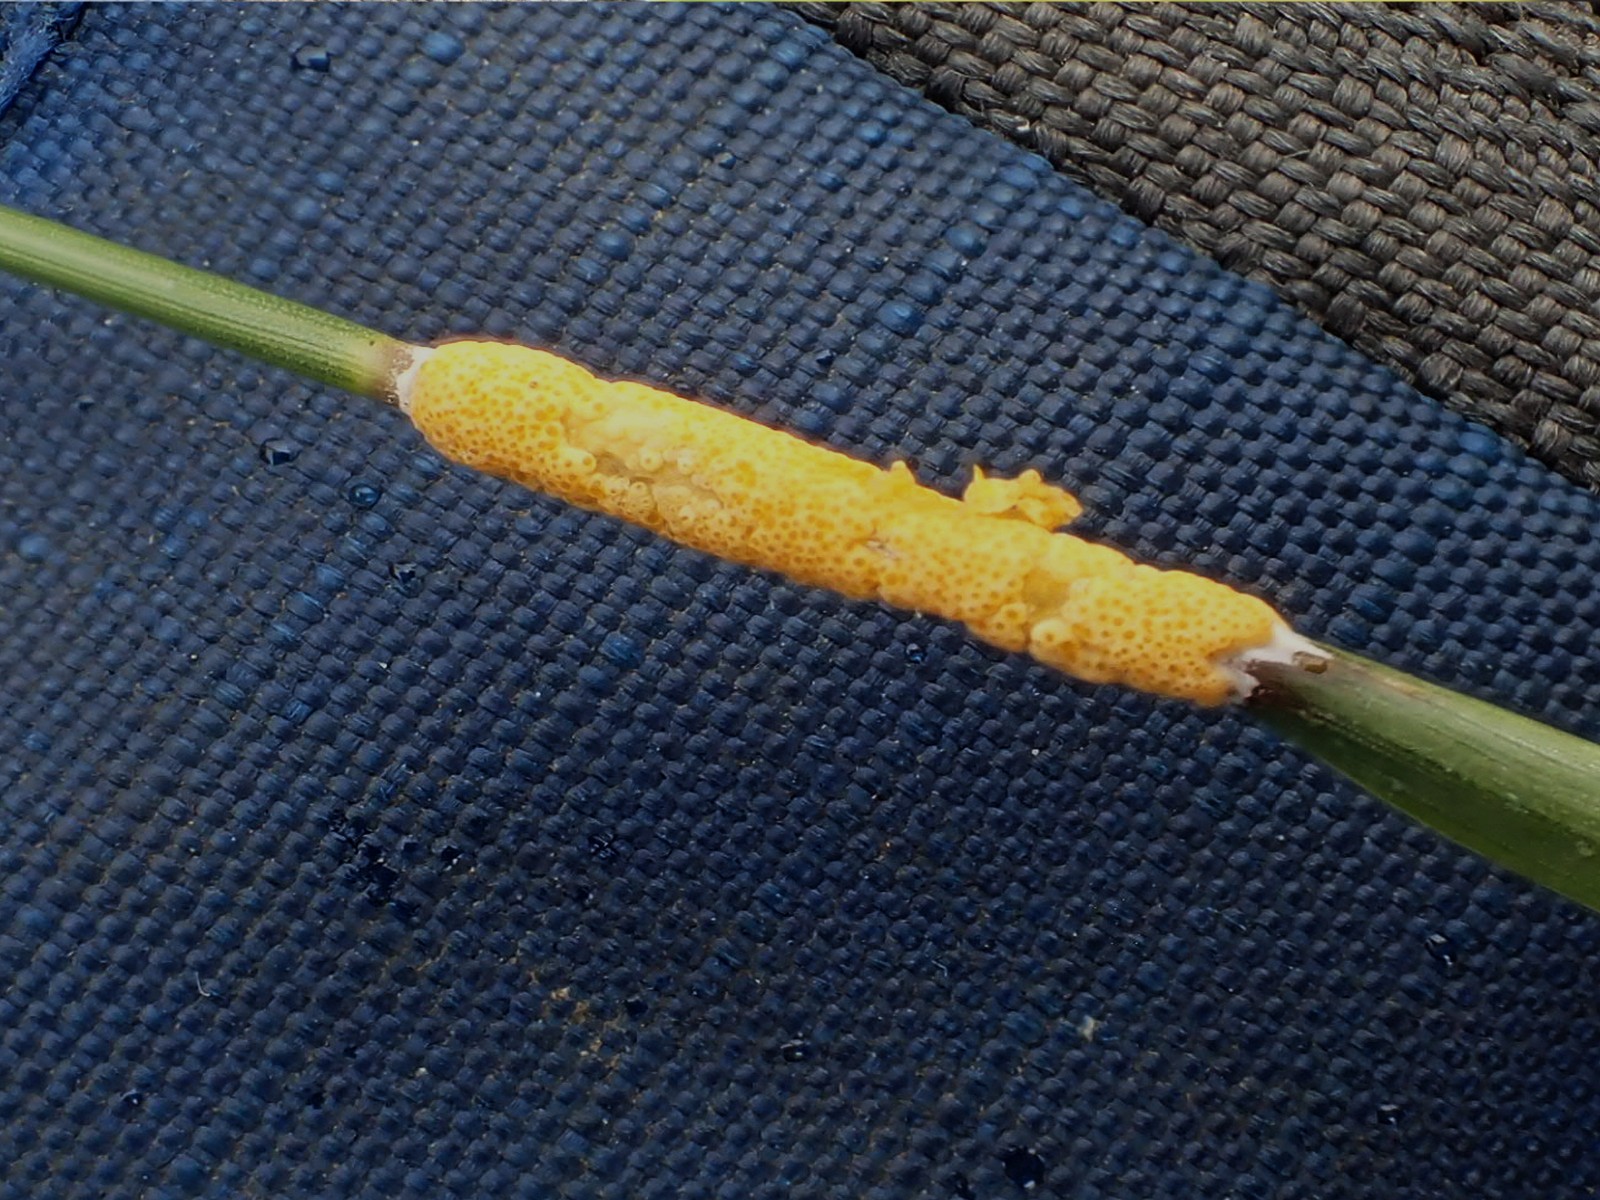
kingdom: Fungi
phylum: Ascomycota
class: Sordariomycetes
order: Hypocreales
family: Clavicipitaceae
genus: Epichloe
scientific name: Epichloe typhina
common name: almindelig kernerør
